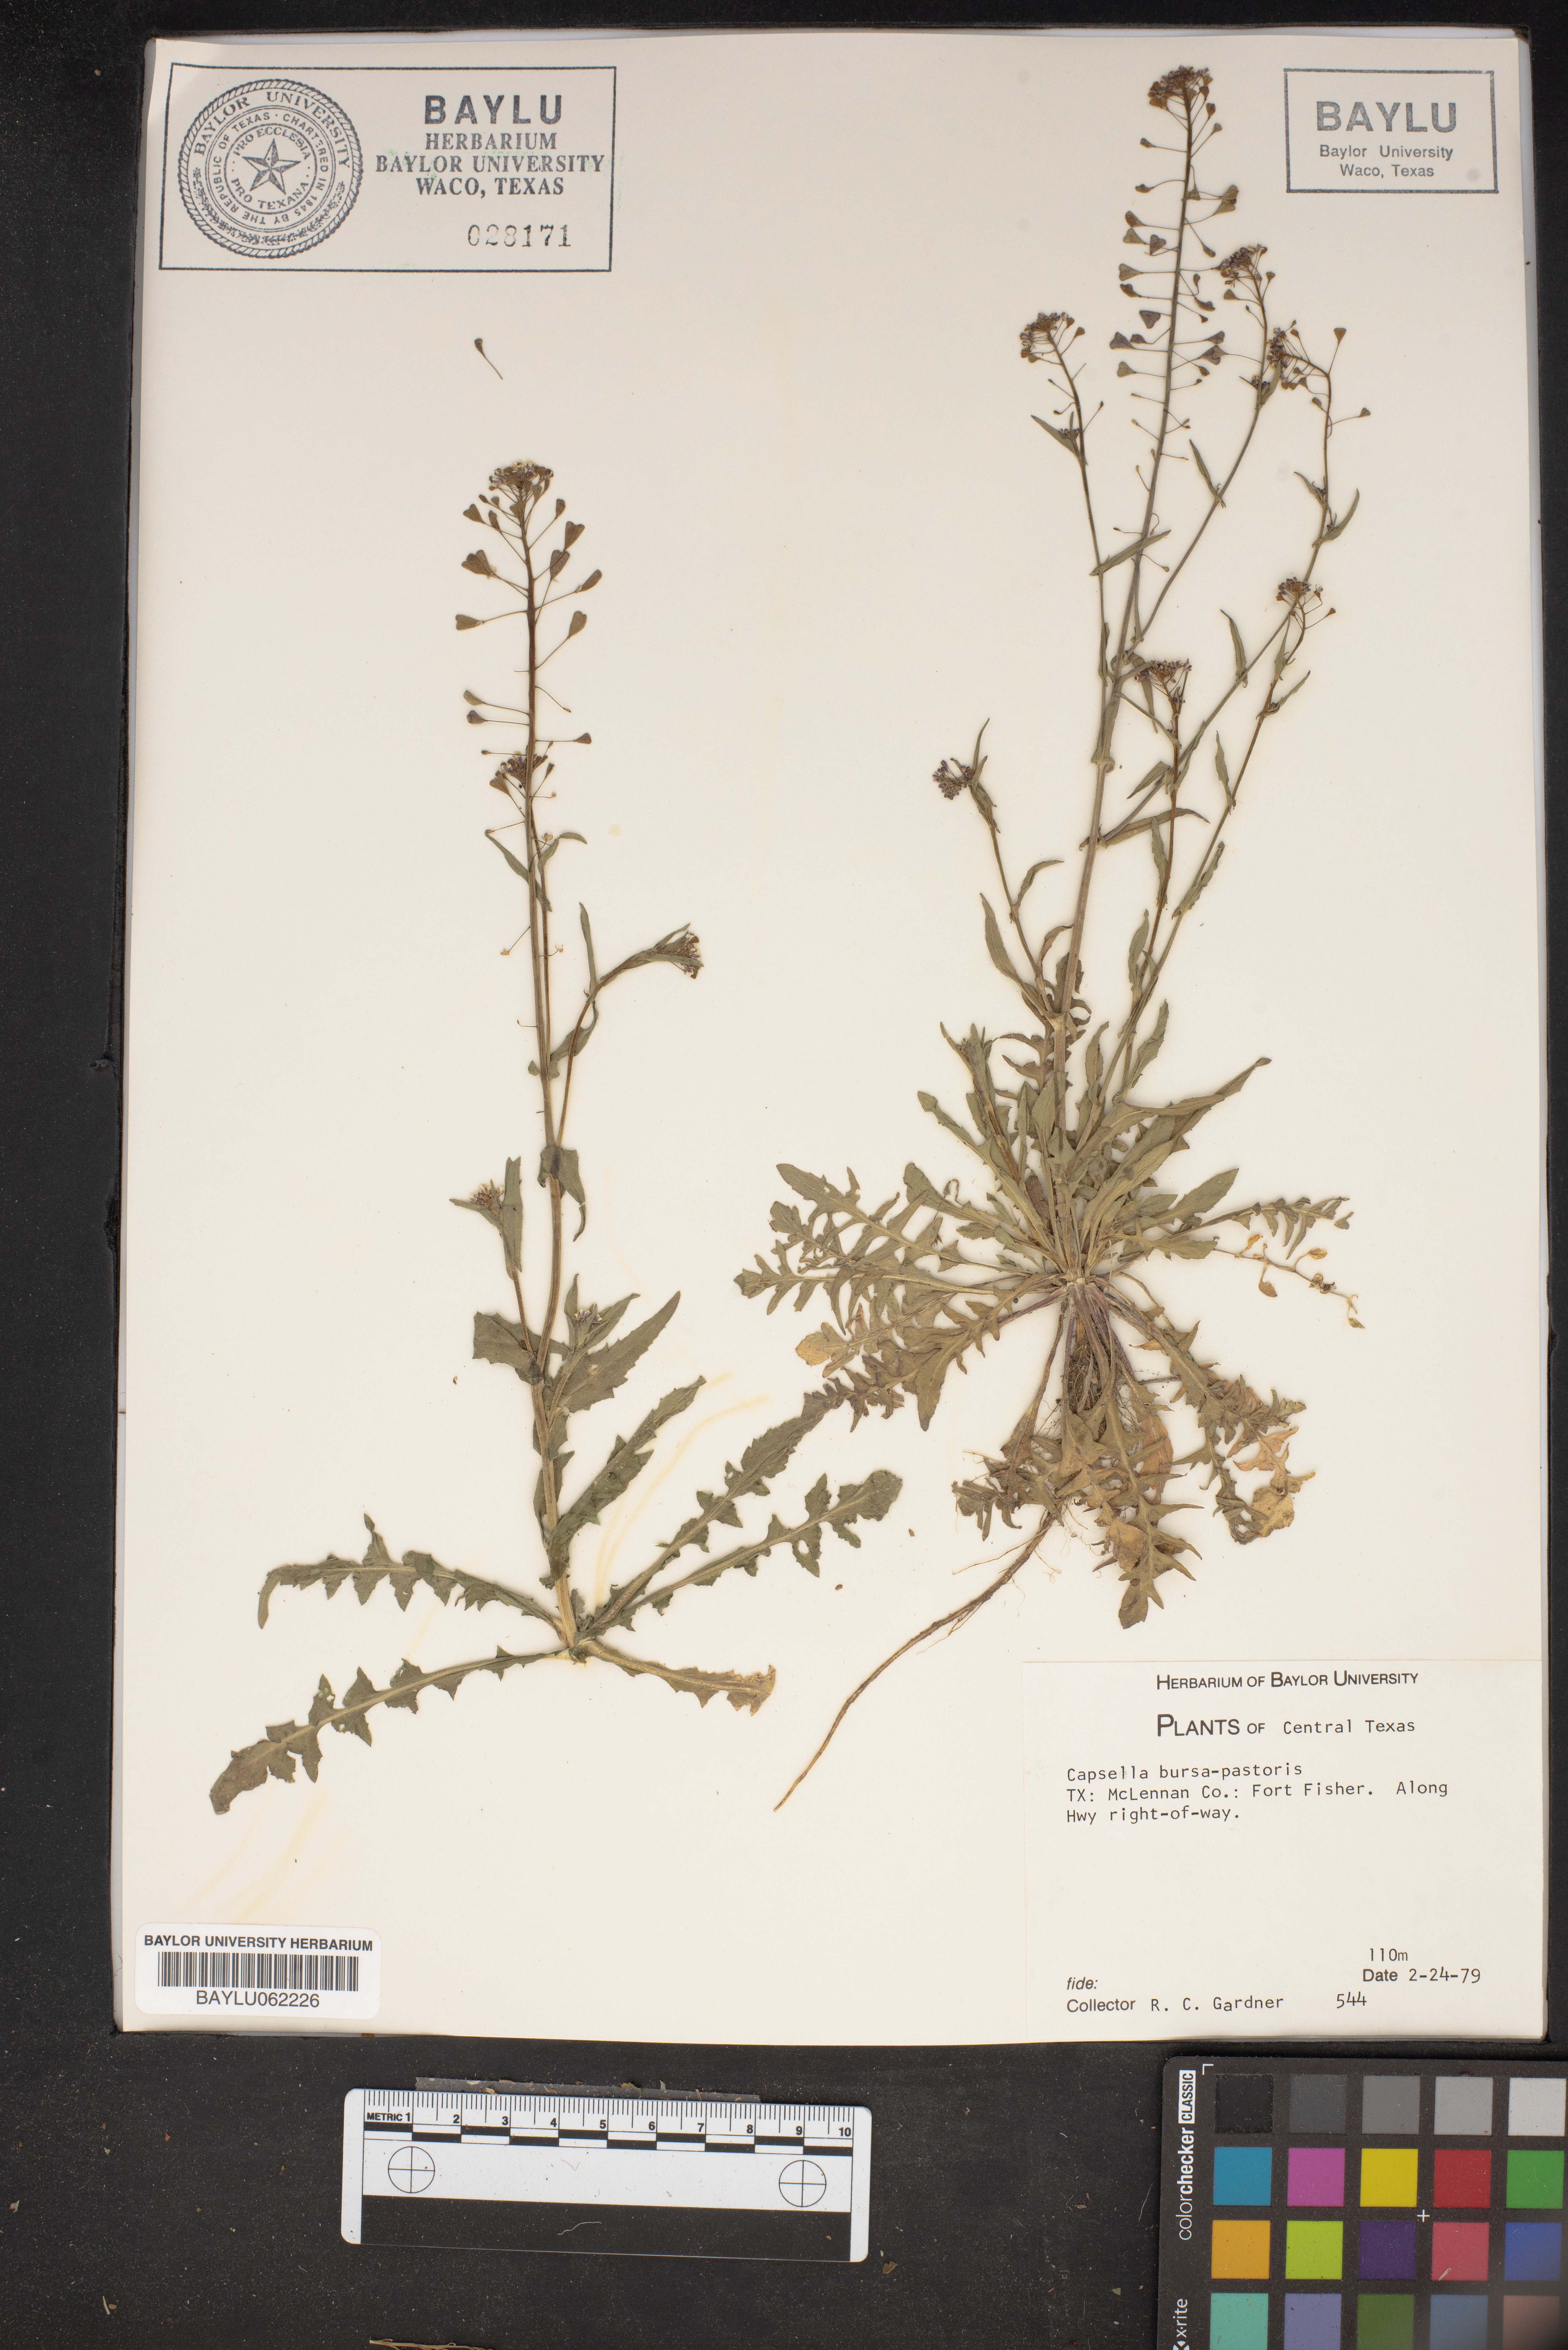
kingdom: Plantae
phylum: Tracheophyta
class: Magnoliopsida
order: Brassicales
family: Brassicaceae
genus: Capsella
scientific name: Capsella bursa-pastoris
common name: Shepherd's purse
